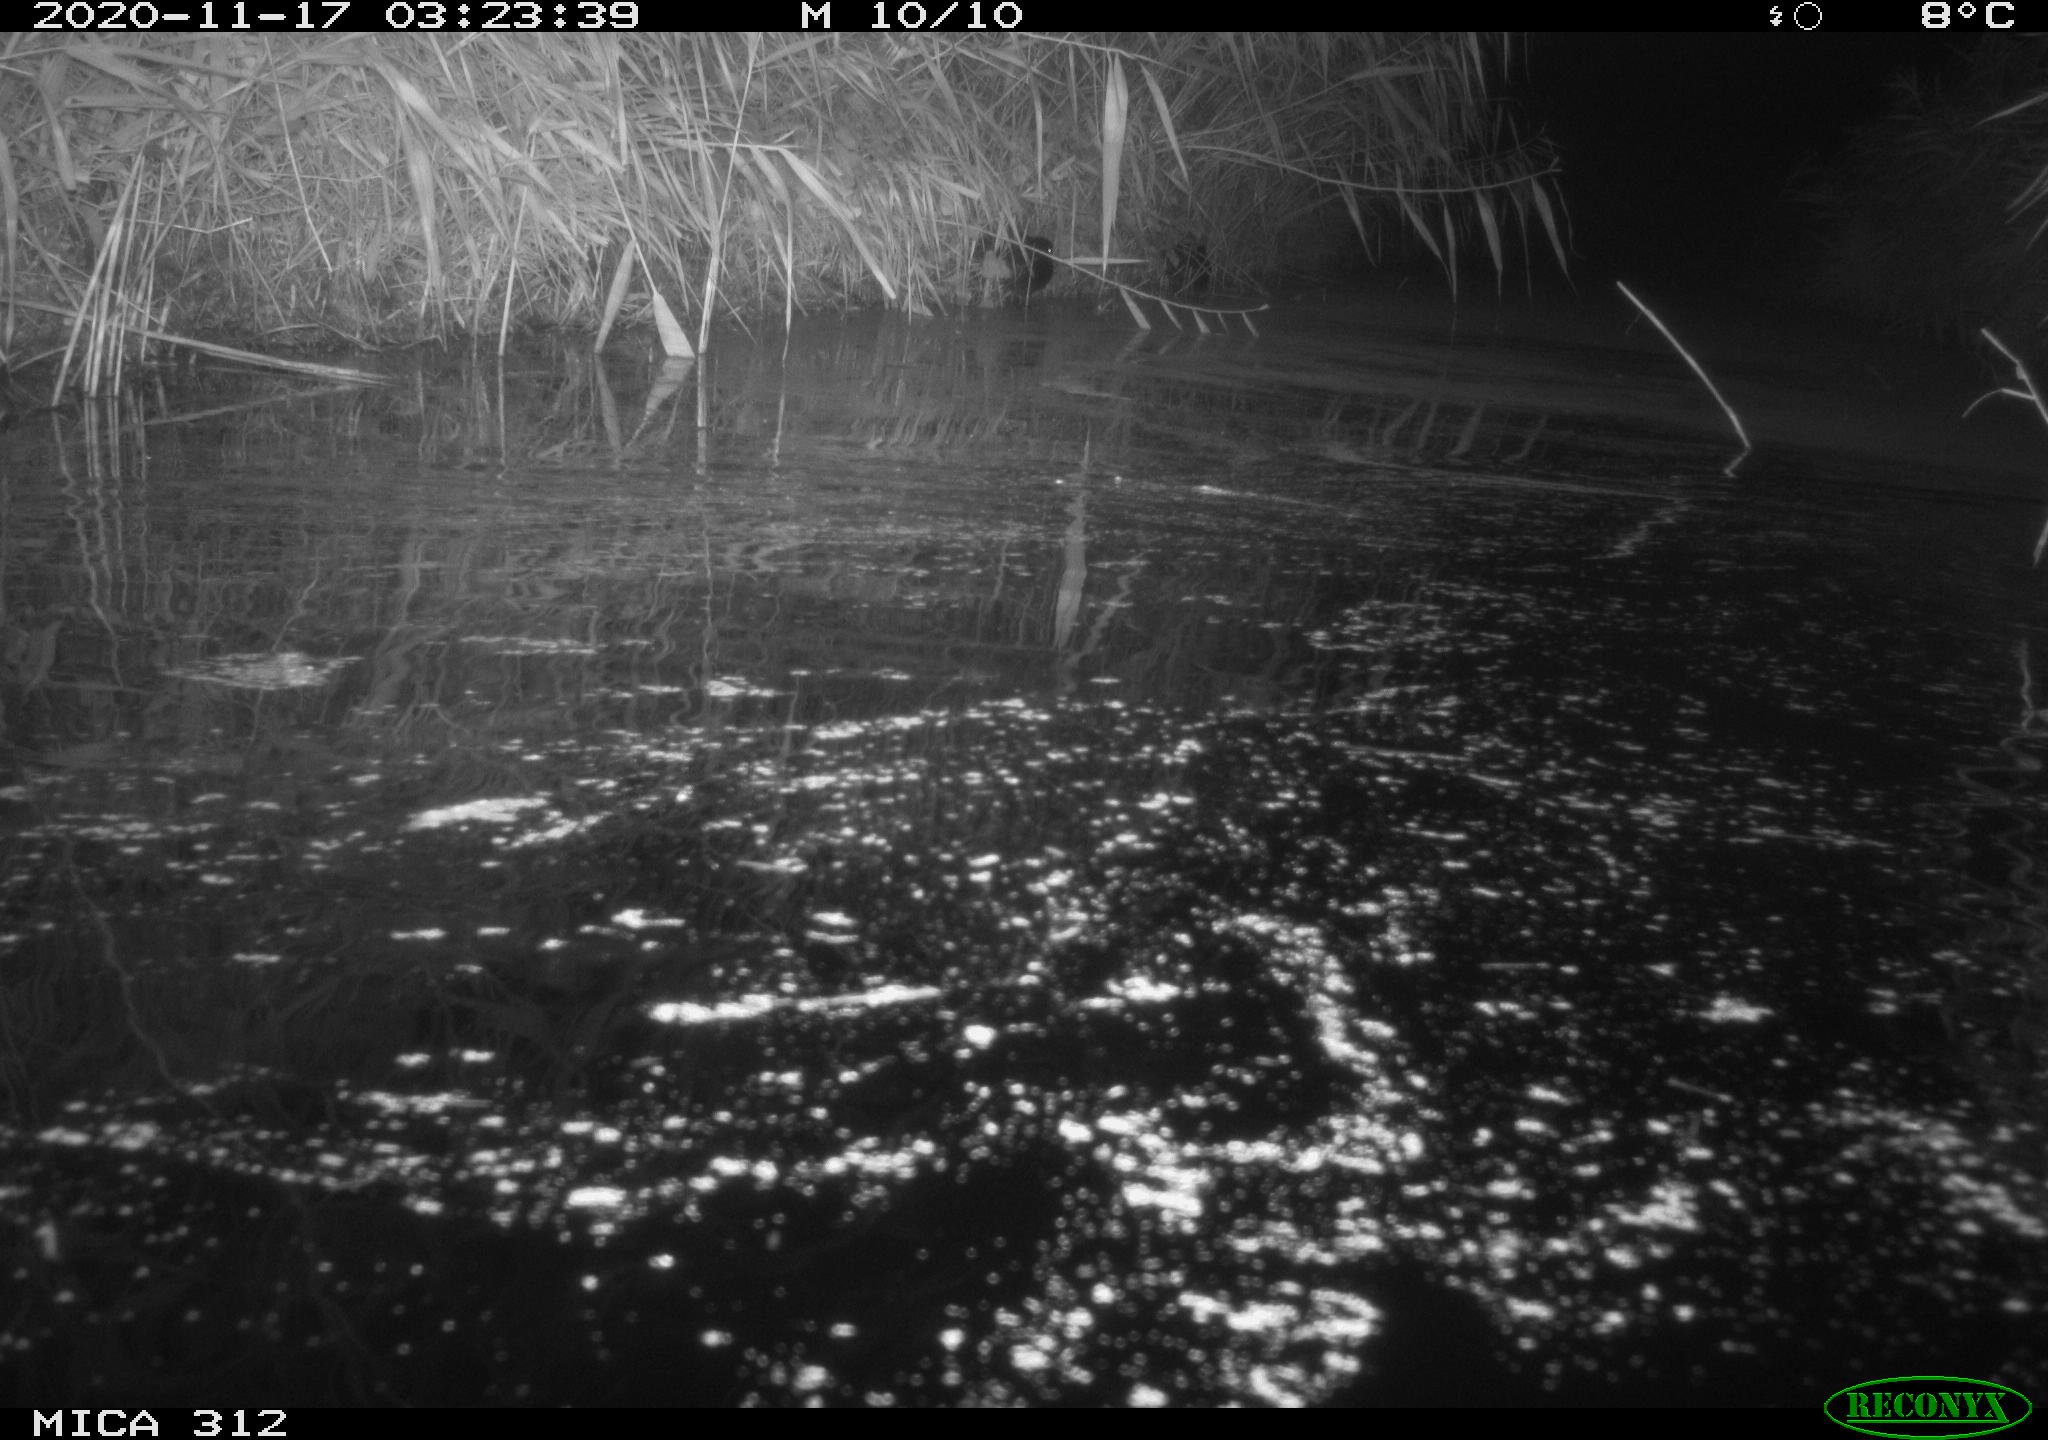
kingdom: Animalia
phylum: Chordata
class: Mammalia
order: Rodentia
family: Muridae
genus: Rattus
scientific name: Rattus norvegicus
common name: Brown rat
